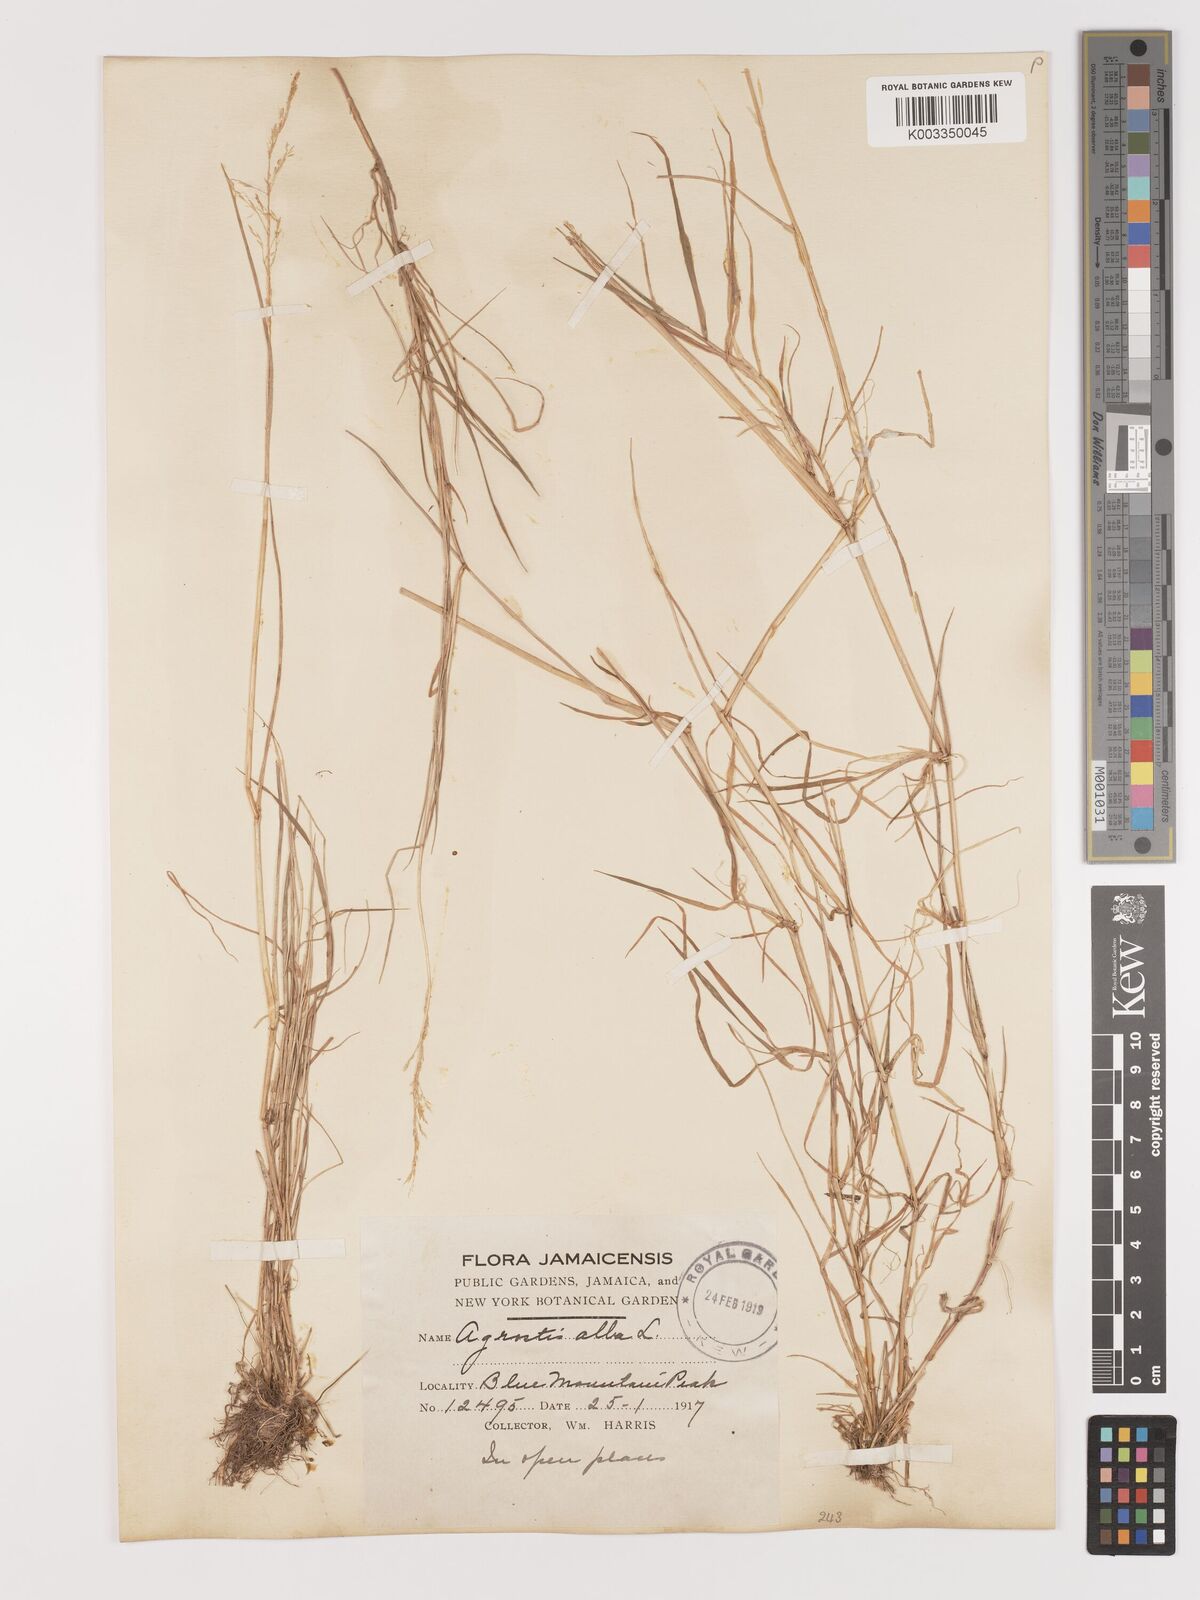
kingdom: Plantae
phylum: Tracheophyta
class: Liliopsida
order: Poales
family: Poaceae
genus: Agrostis
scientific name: Agrostis gigantea
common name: Black bent
